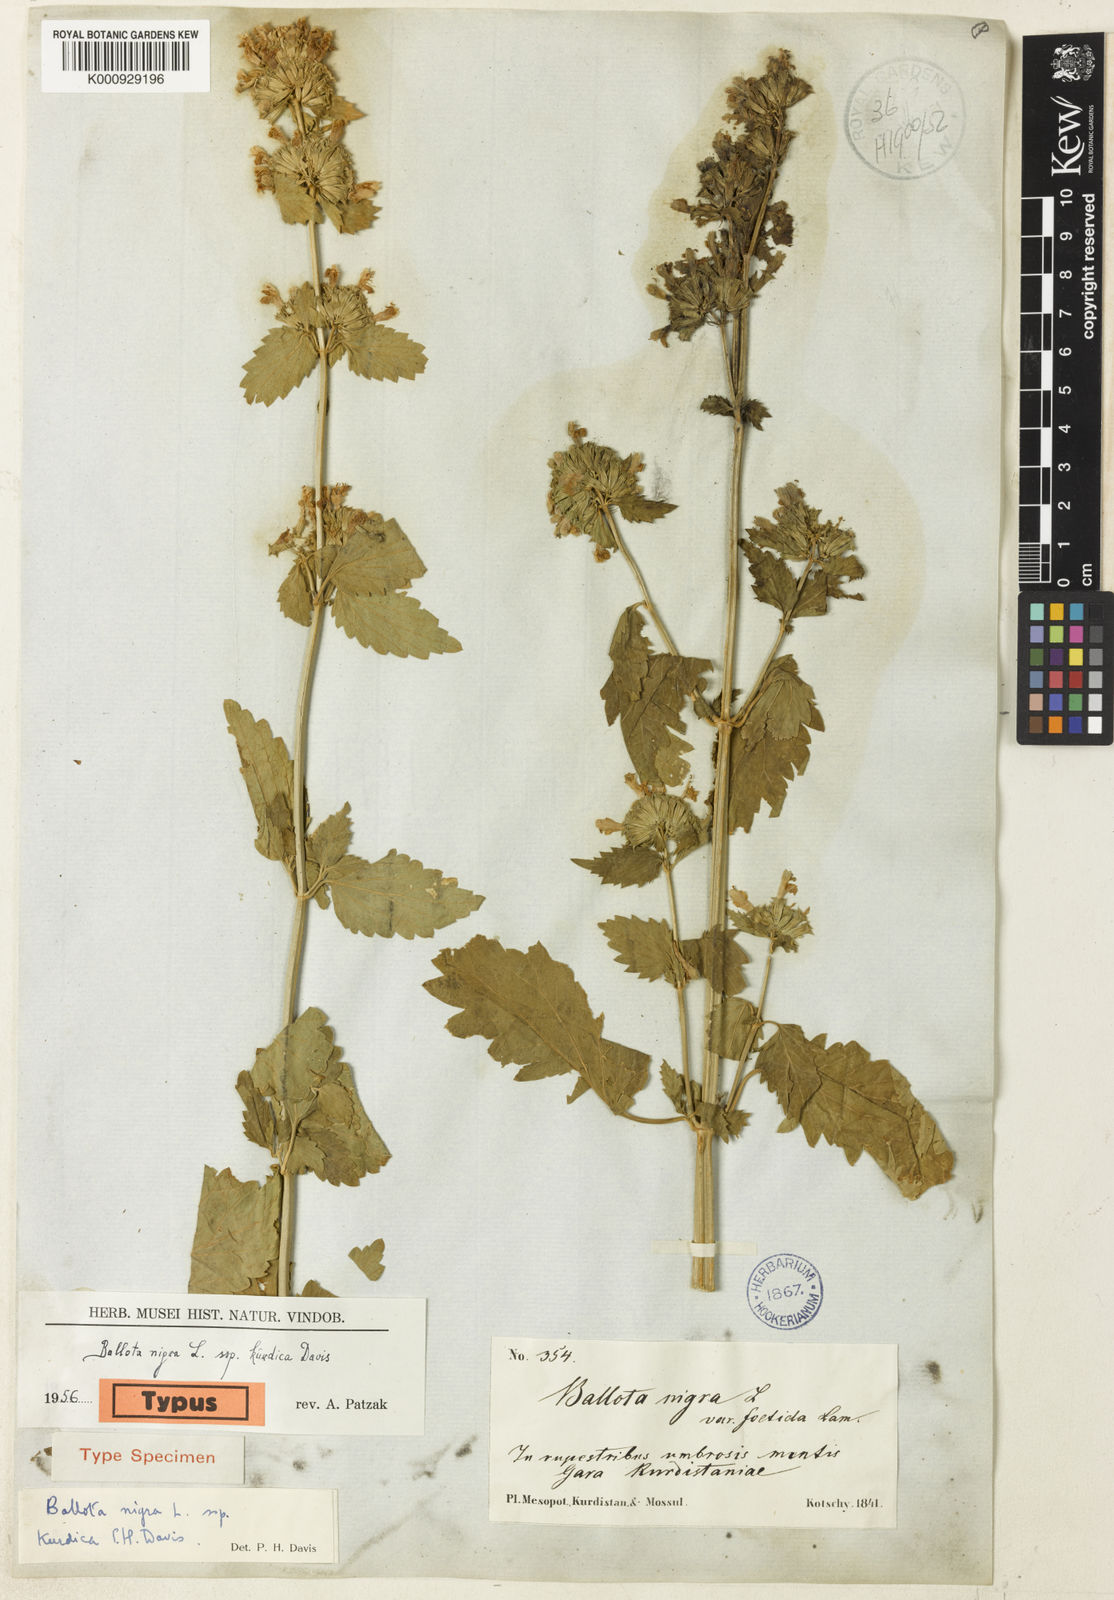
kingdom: Plantae
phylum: Tracheophyta
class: Magnoliopsida
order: Lamiales
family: Lamiaceae
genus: Ballota
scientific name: Ballota nigra
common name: Black horehound
